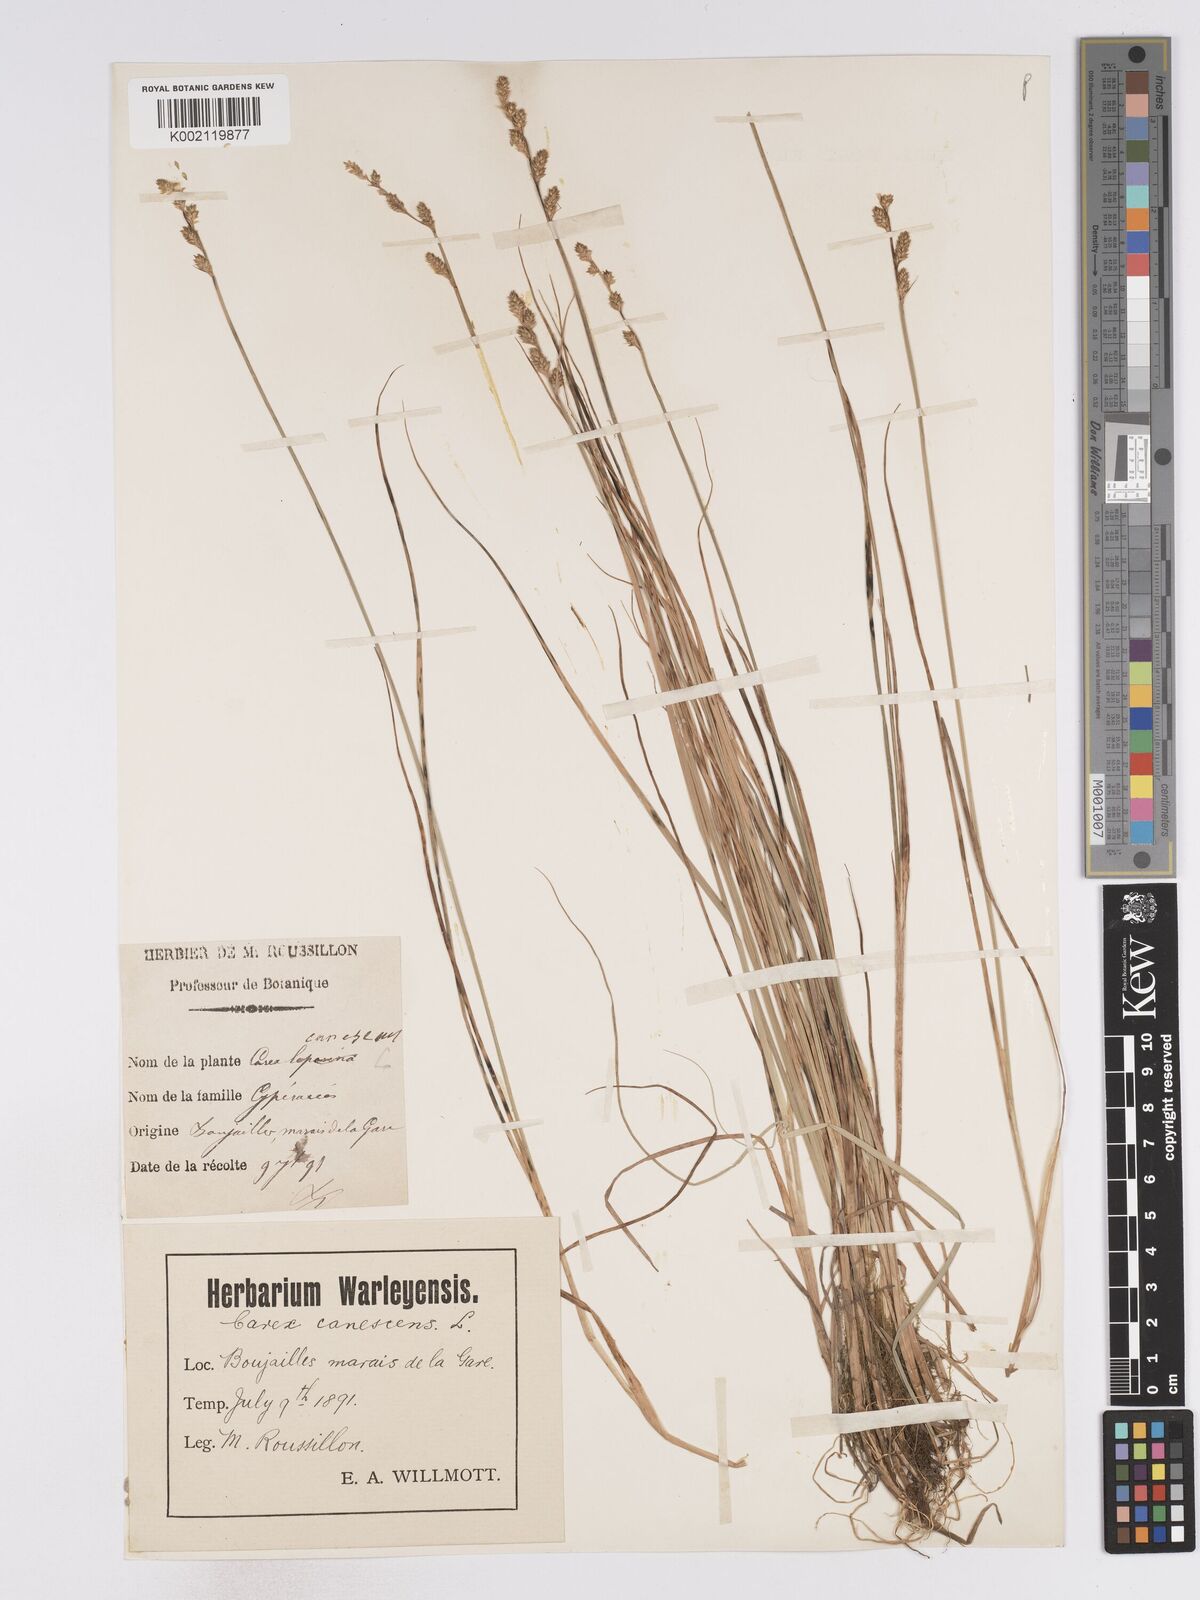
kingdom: Plantae
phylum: Tracheophyta
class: Liliopsida
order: Poales
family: Cyperaceae
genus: Carex
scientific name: Carex curta
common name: White sedge
